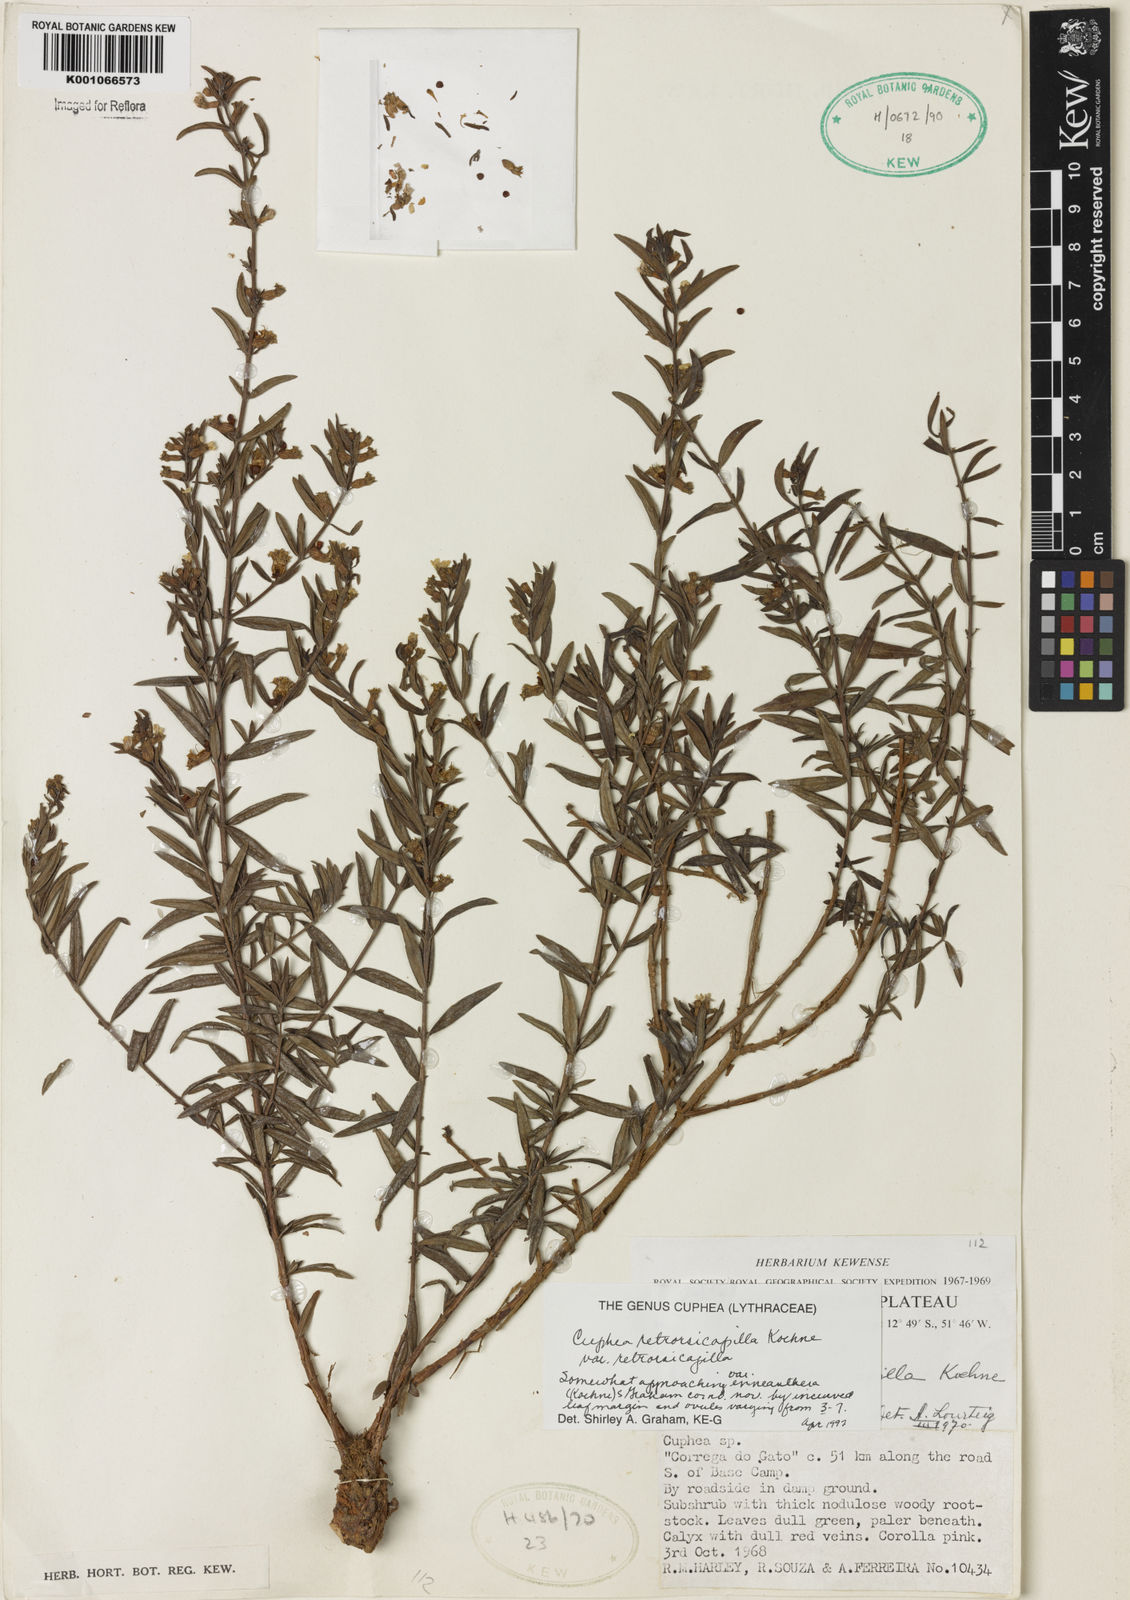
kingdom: Plantae
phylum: Tracheophyta
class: Magnoliopsida
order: Myrtales
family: Lythraceae
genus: Cuphea
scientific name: Cuphea retrorsicapilla
